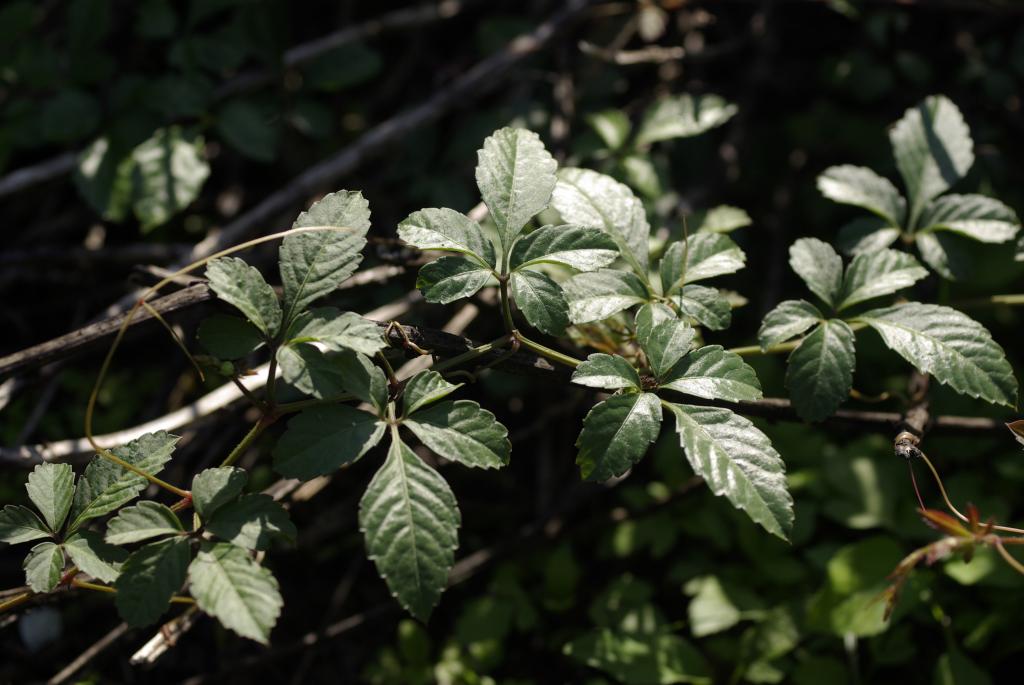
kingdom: Plantae
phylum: Tracheophyta
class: Magnoliopsida
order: Vitales
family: Vitaceae
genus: Causonis
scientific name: Causonis japonica
